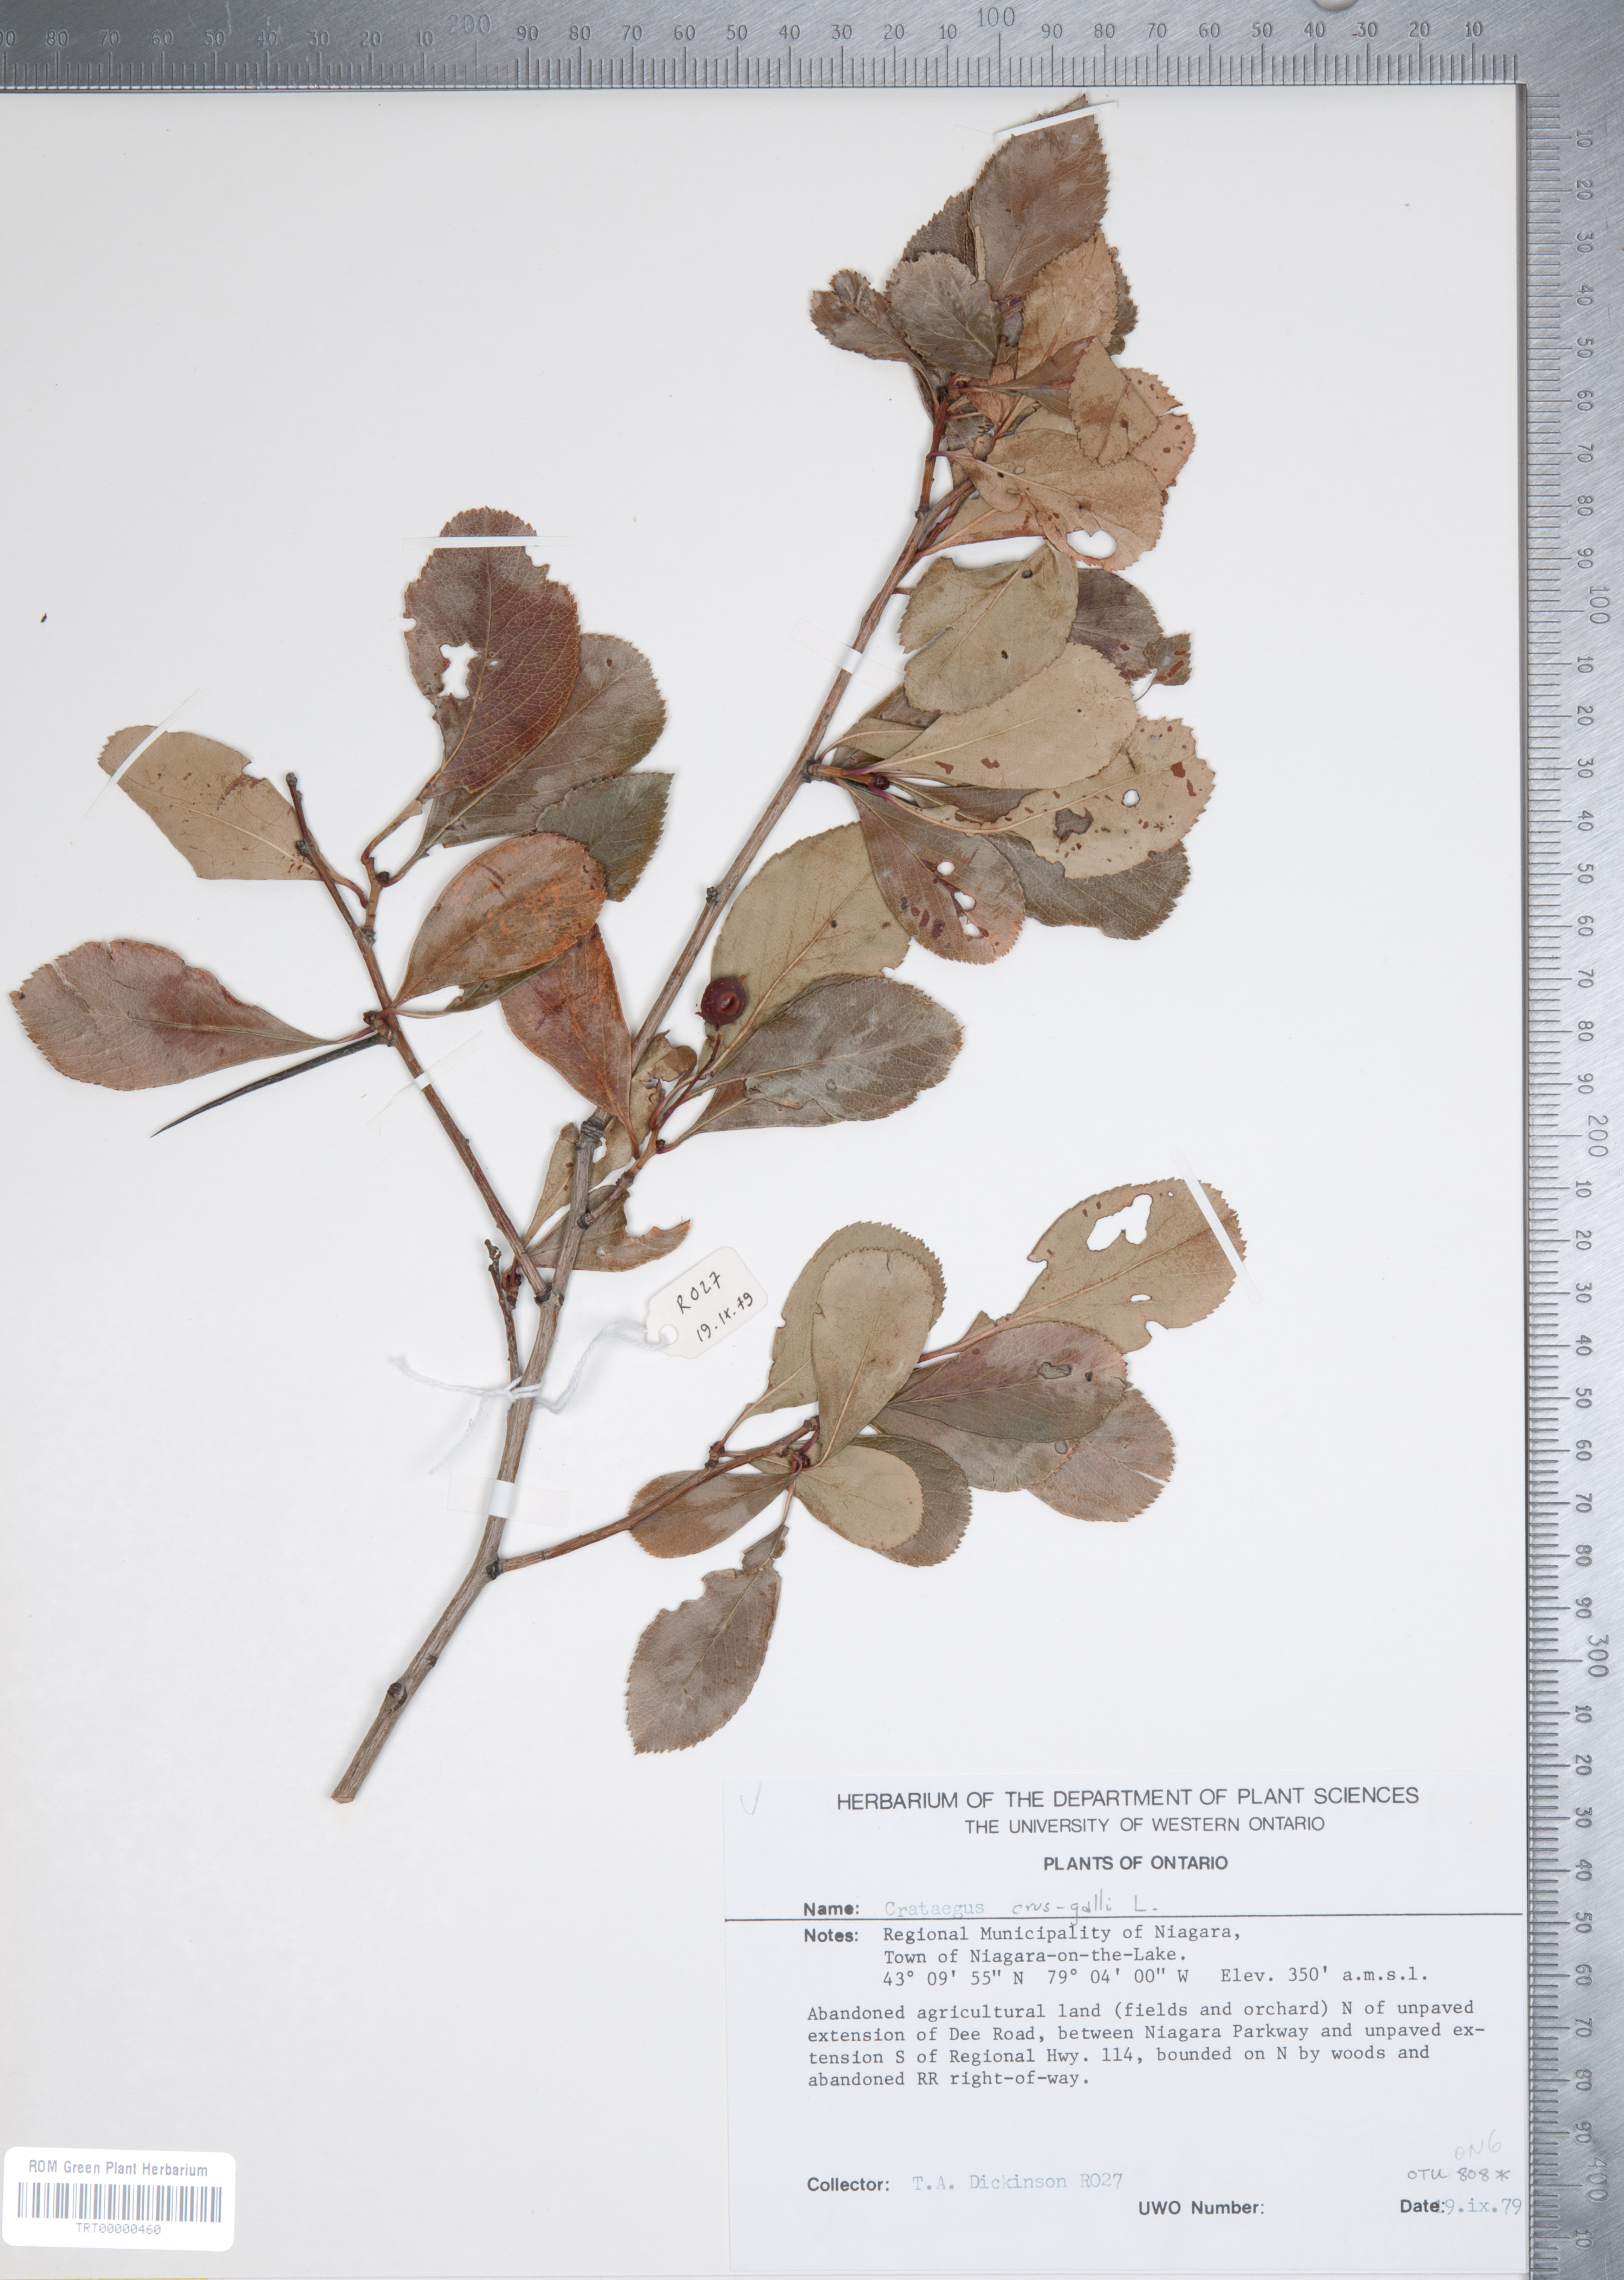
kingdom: Plantae
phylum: Tracheophyta
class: Magnoliopsida
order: Rosales
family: Rosaceae
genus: Crataegus
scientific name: Crataegus crus-galli
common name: Cockspurthorn
